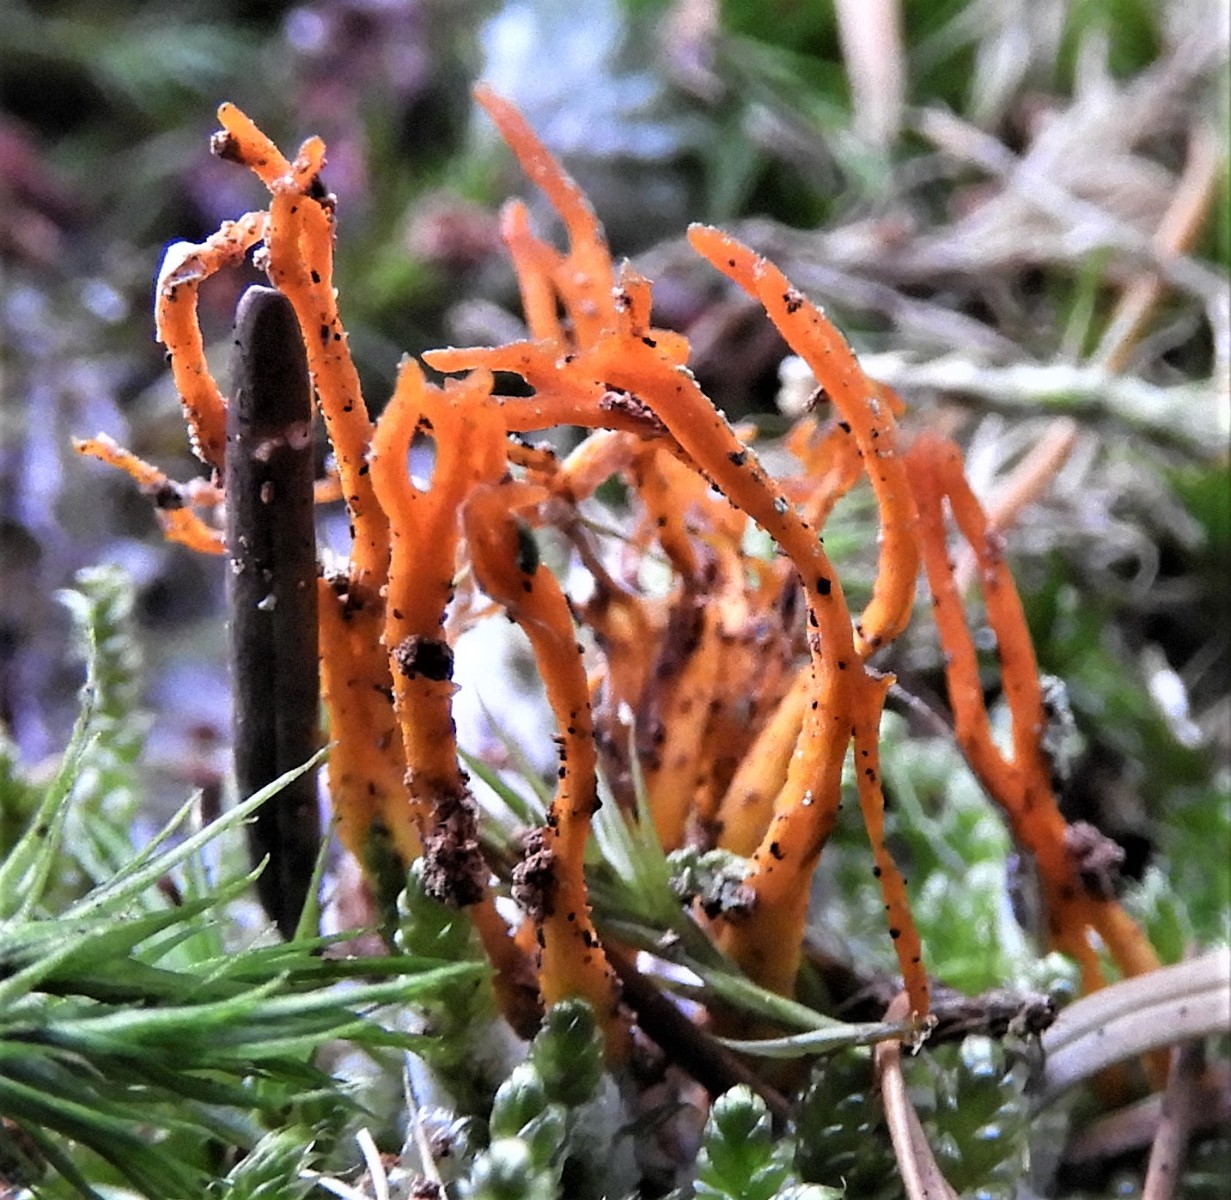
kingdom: Fungi
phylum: Basidiomycota
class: Dacrymycetes
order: Dacrymycetales
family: Dacrymycetaceae
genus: Calocera
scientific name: Calocera viscosa
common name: almindelig guldgaffel
